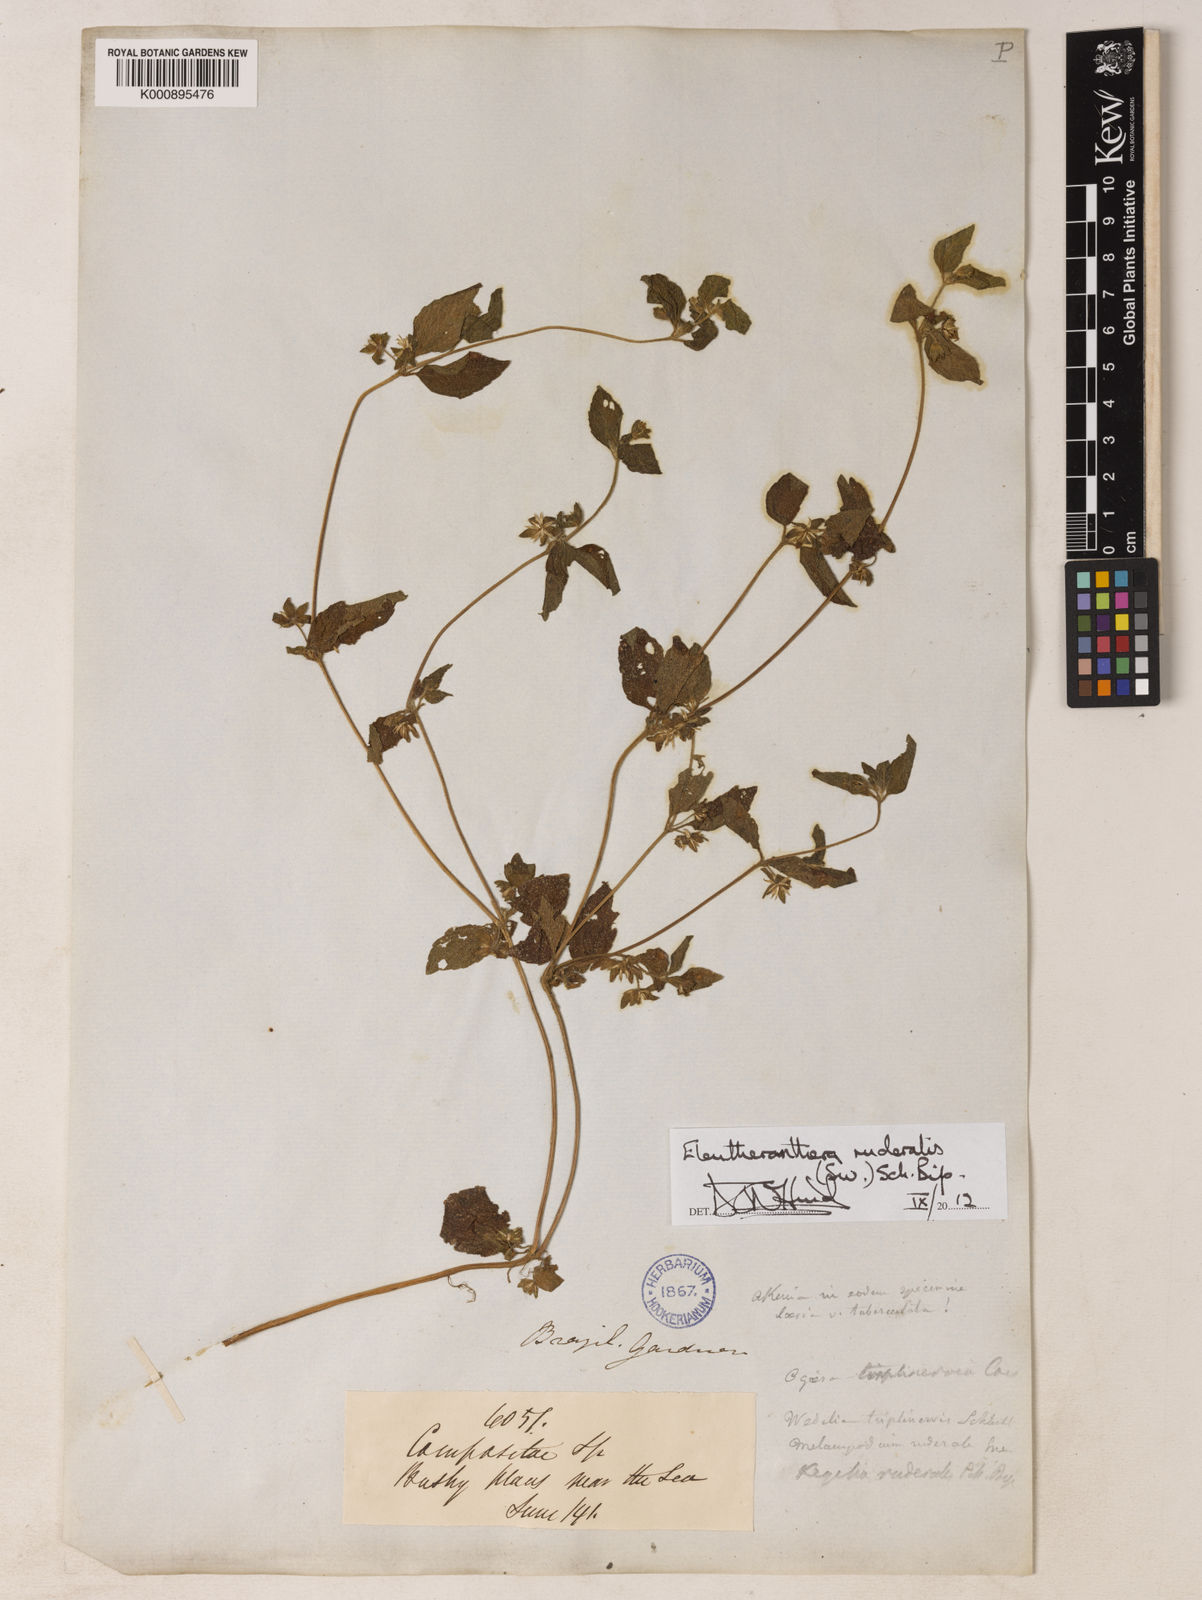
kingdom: Plantae
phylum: Tracheophyta
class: Magnoliopsida
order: Asterales
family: Asteraceae
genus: Eleutheranthera
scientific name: Eleutheranthera ruderalis
